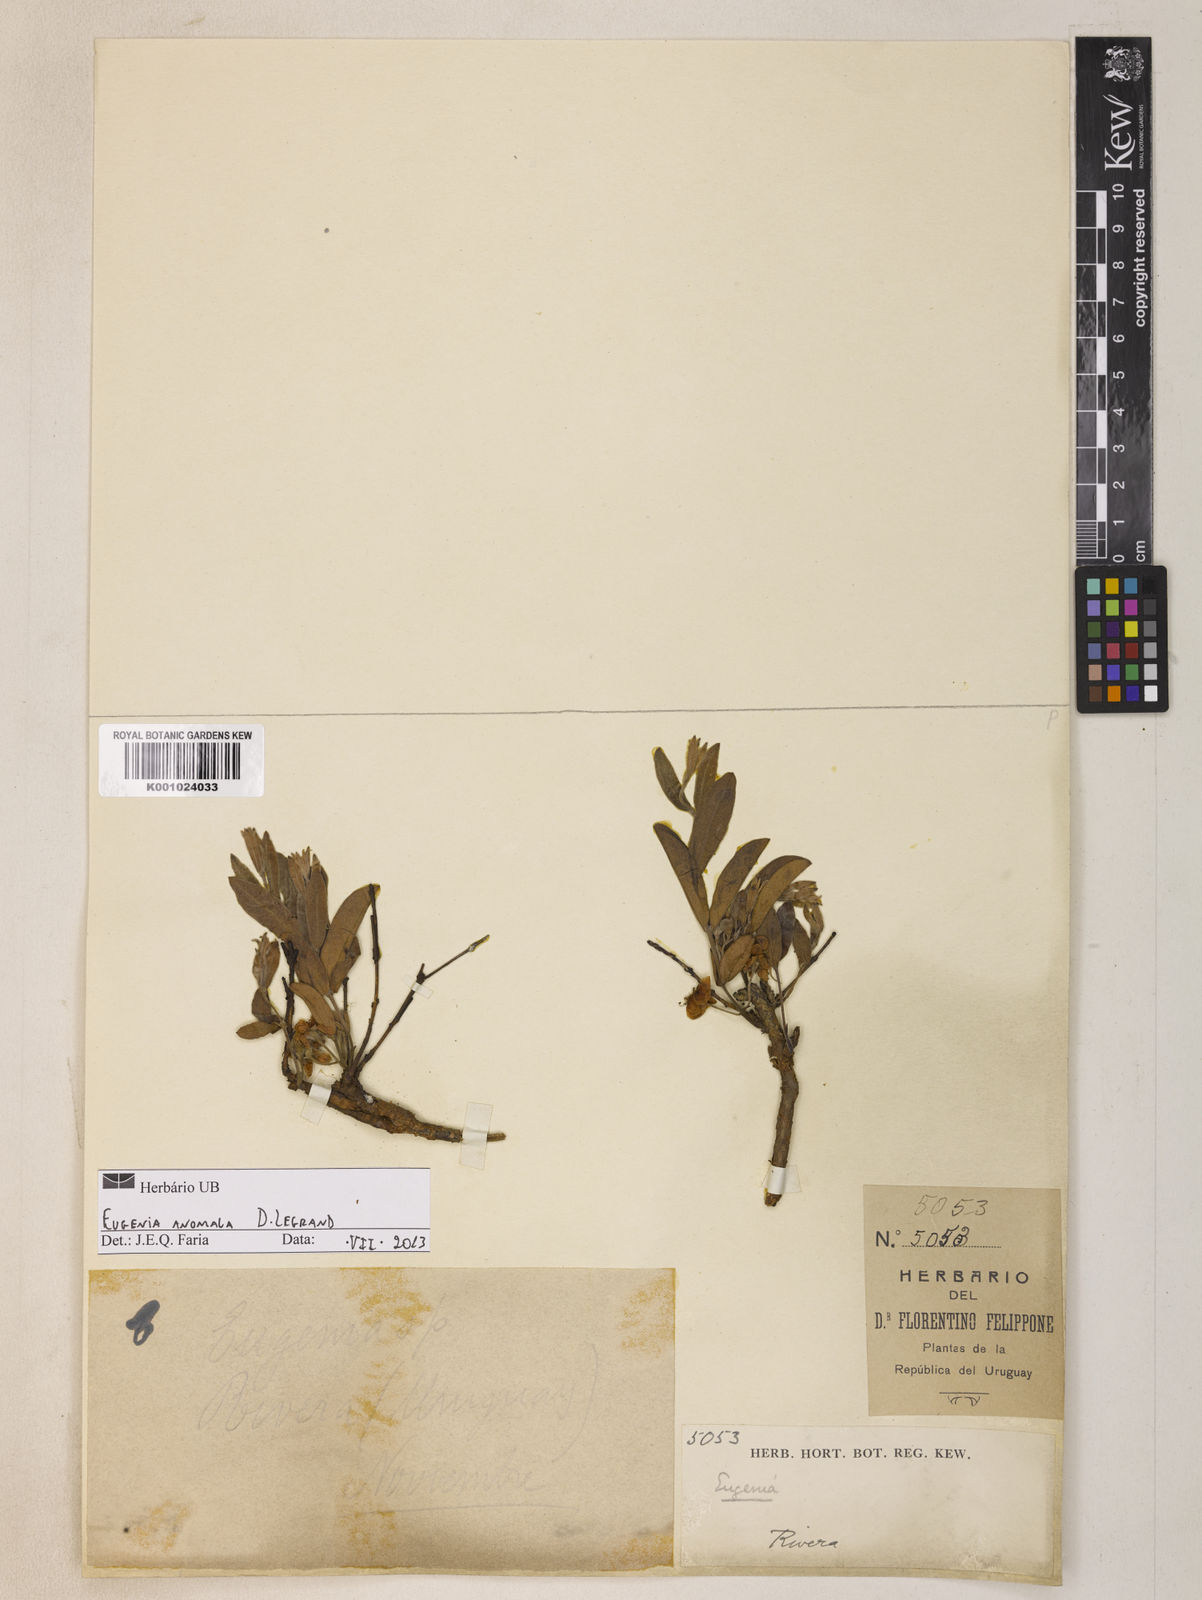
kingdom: Plantae
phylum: Tracheophyta
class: Magnoliopsida
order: Myrtales
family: Myrtaceae
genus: Eugenia
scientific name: Eugenia anomala
